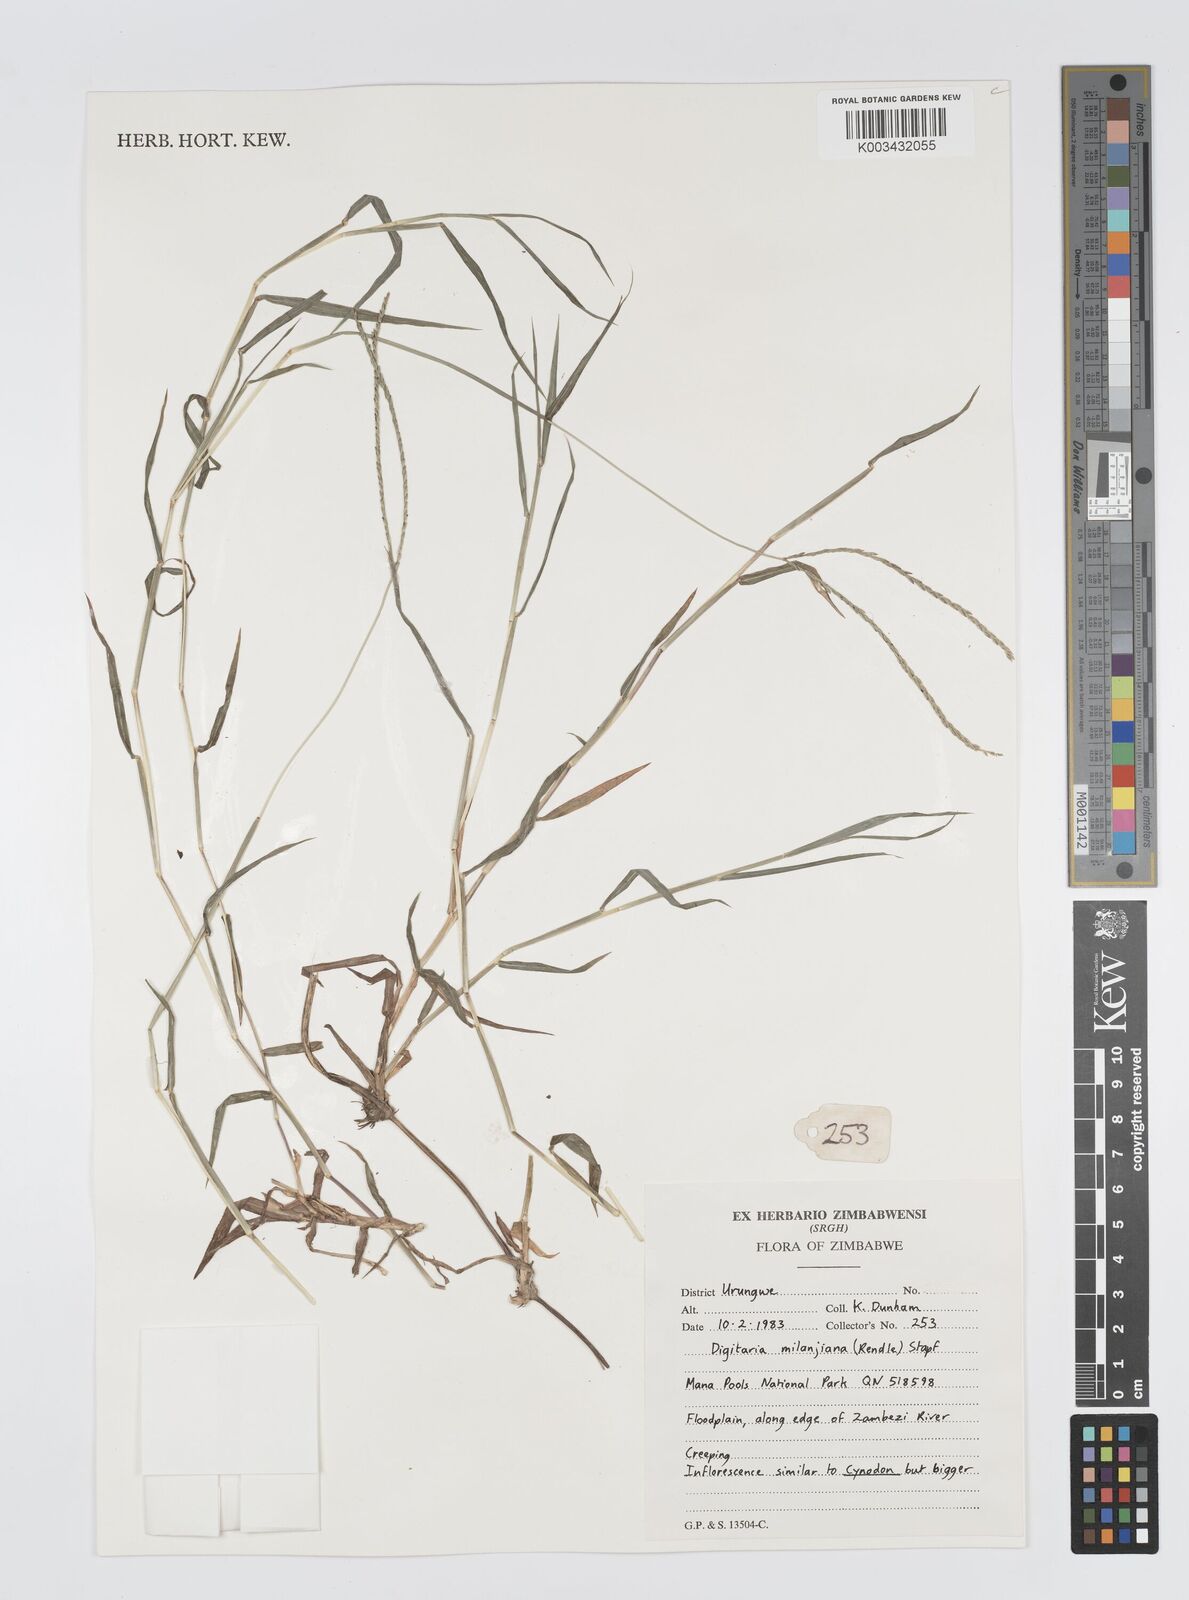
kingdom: Plantae
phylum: Tracheophyta
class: Liliopsida
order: Poales
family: Poaceae
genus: Digitaria
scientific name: Digitaria milanjiana
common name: Madagascar crabgrass
